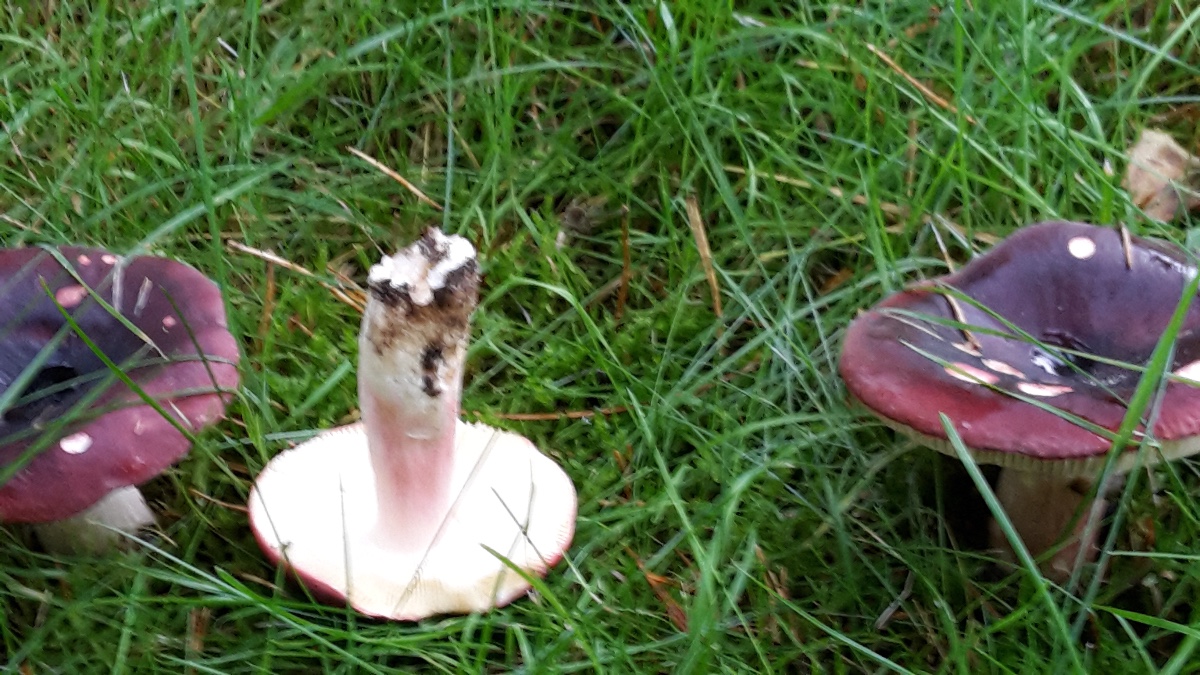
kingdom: Fungi
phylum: Basidiomycota
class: Agaricomycetes
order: Russulales
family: Russulaceae
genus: Russula
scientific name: Russula xerampelina
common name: hummer-skørhat
